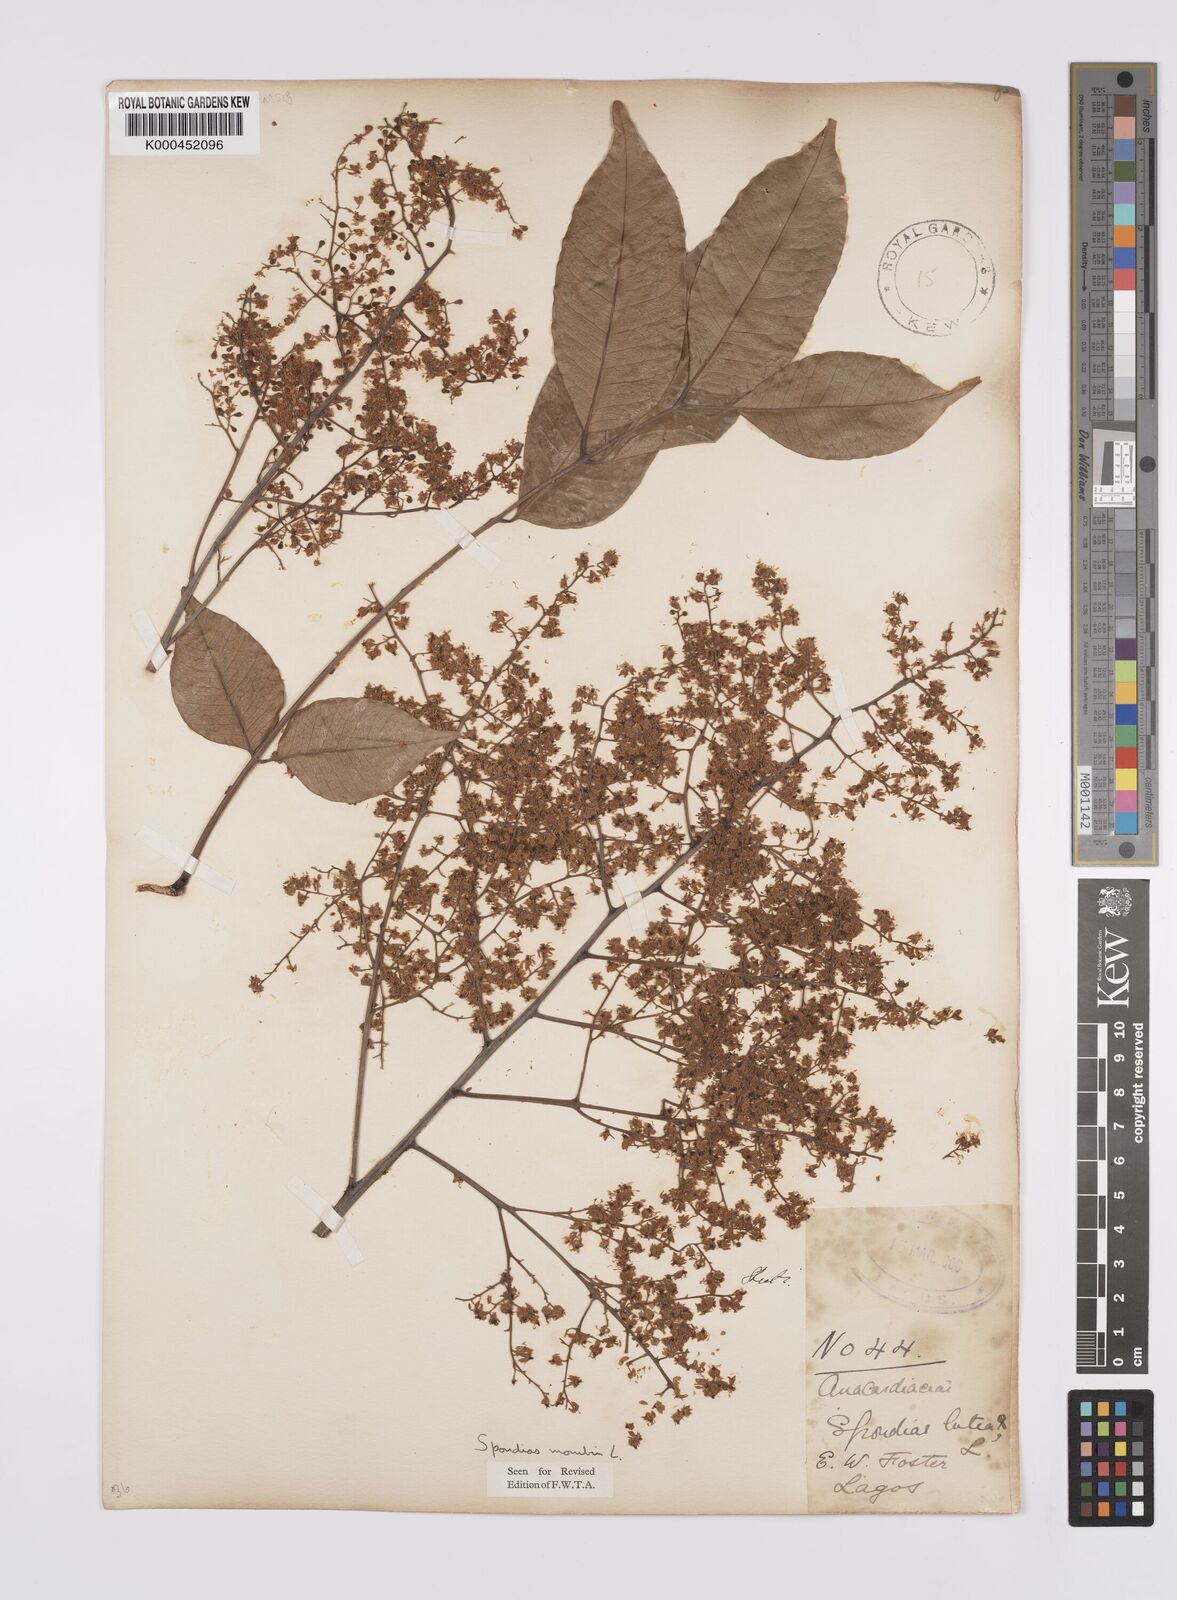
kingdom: Plantae
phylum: Tracheophyta
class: Magnoliopsida
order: Sapindales
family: Anacardiaceae
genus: Spondias
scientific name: Spondias mombin
